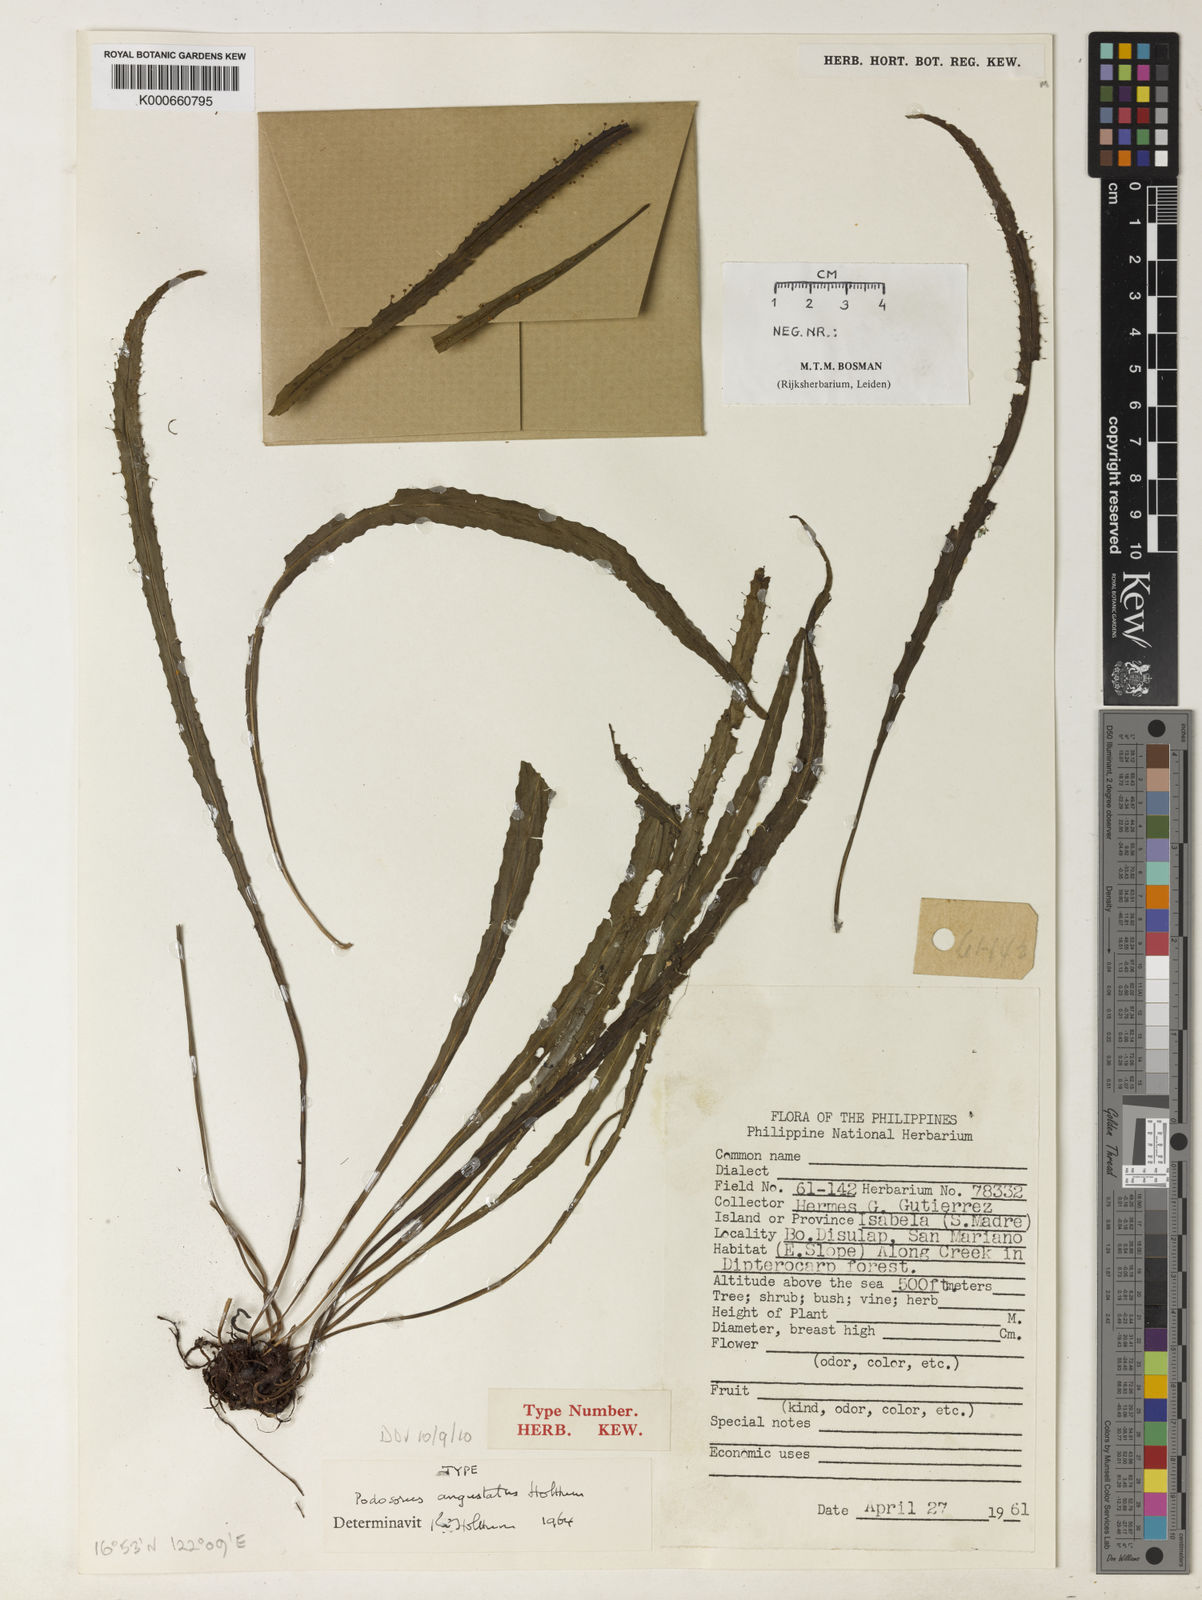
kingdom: Plantae
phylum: Tracheophyta
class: Polypodiopsida
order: Polypodiales
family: Polypodiaceae
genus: Podosorus
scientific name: Podosorus angustatus
